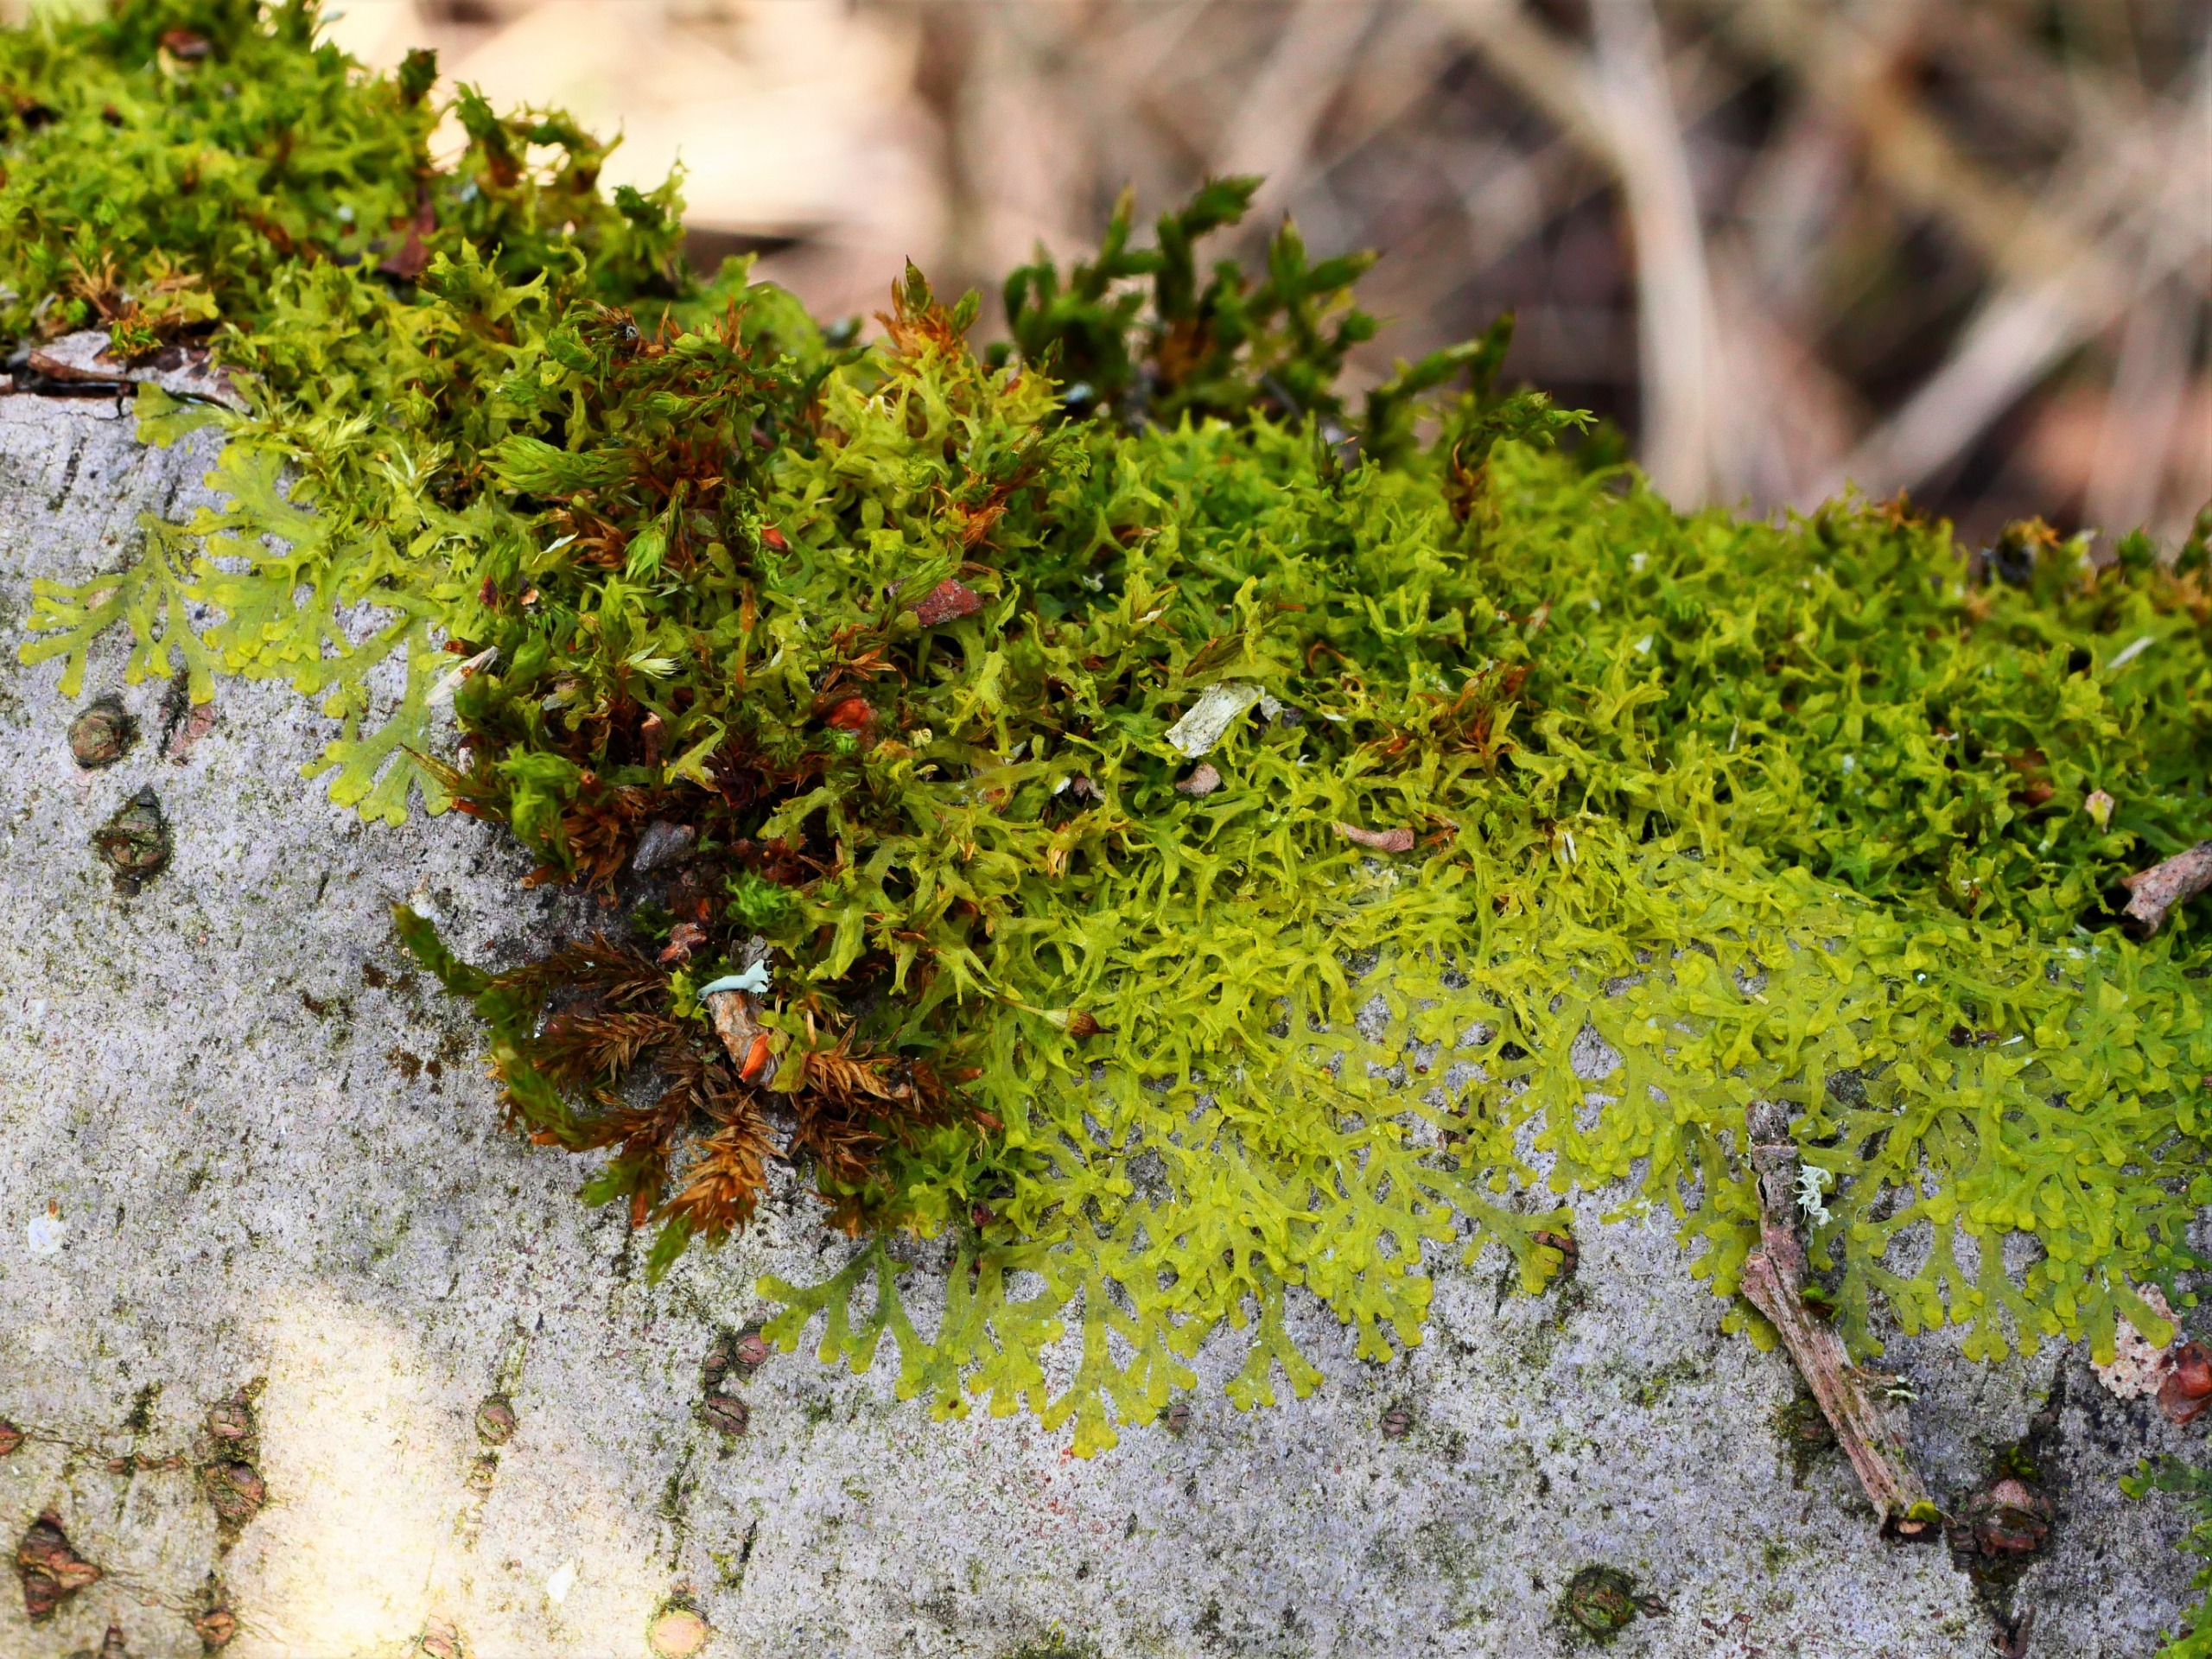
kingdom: Plantae
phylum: Marchantiophyta
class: Jungermanniopsida
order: Metzgeriales
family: Aneuraceae
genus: Riccardia
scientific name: Riccardia palmata
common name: Blågrøn gaffelløv
